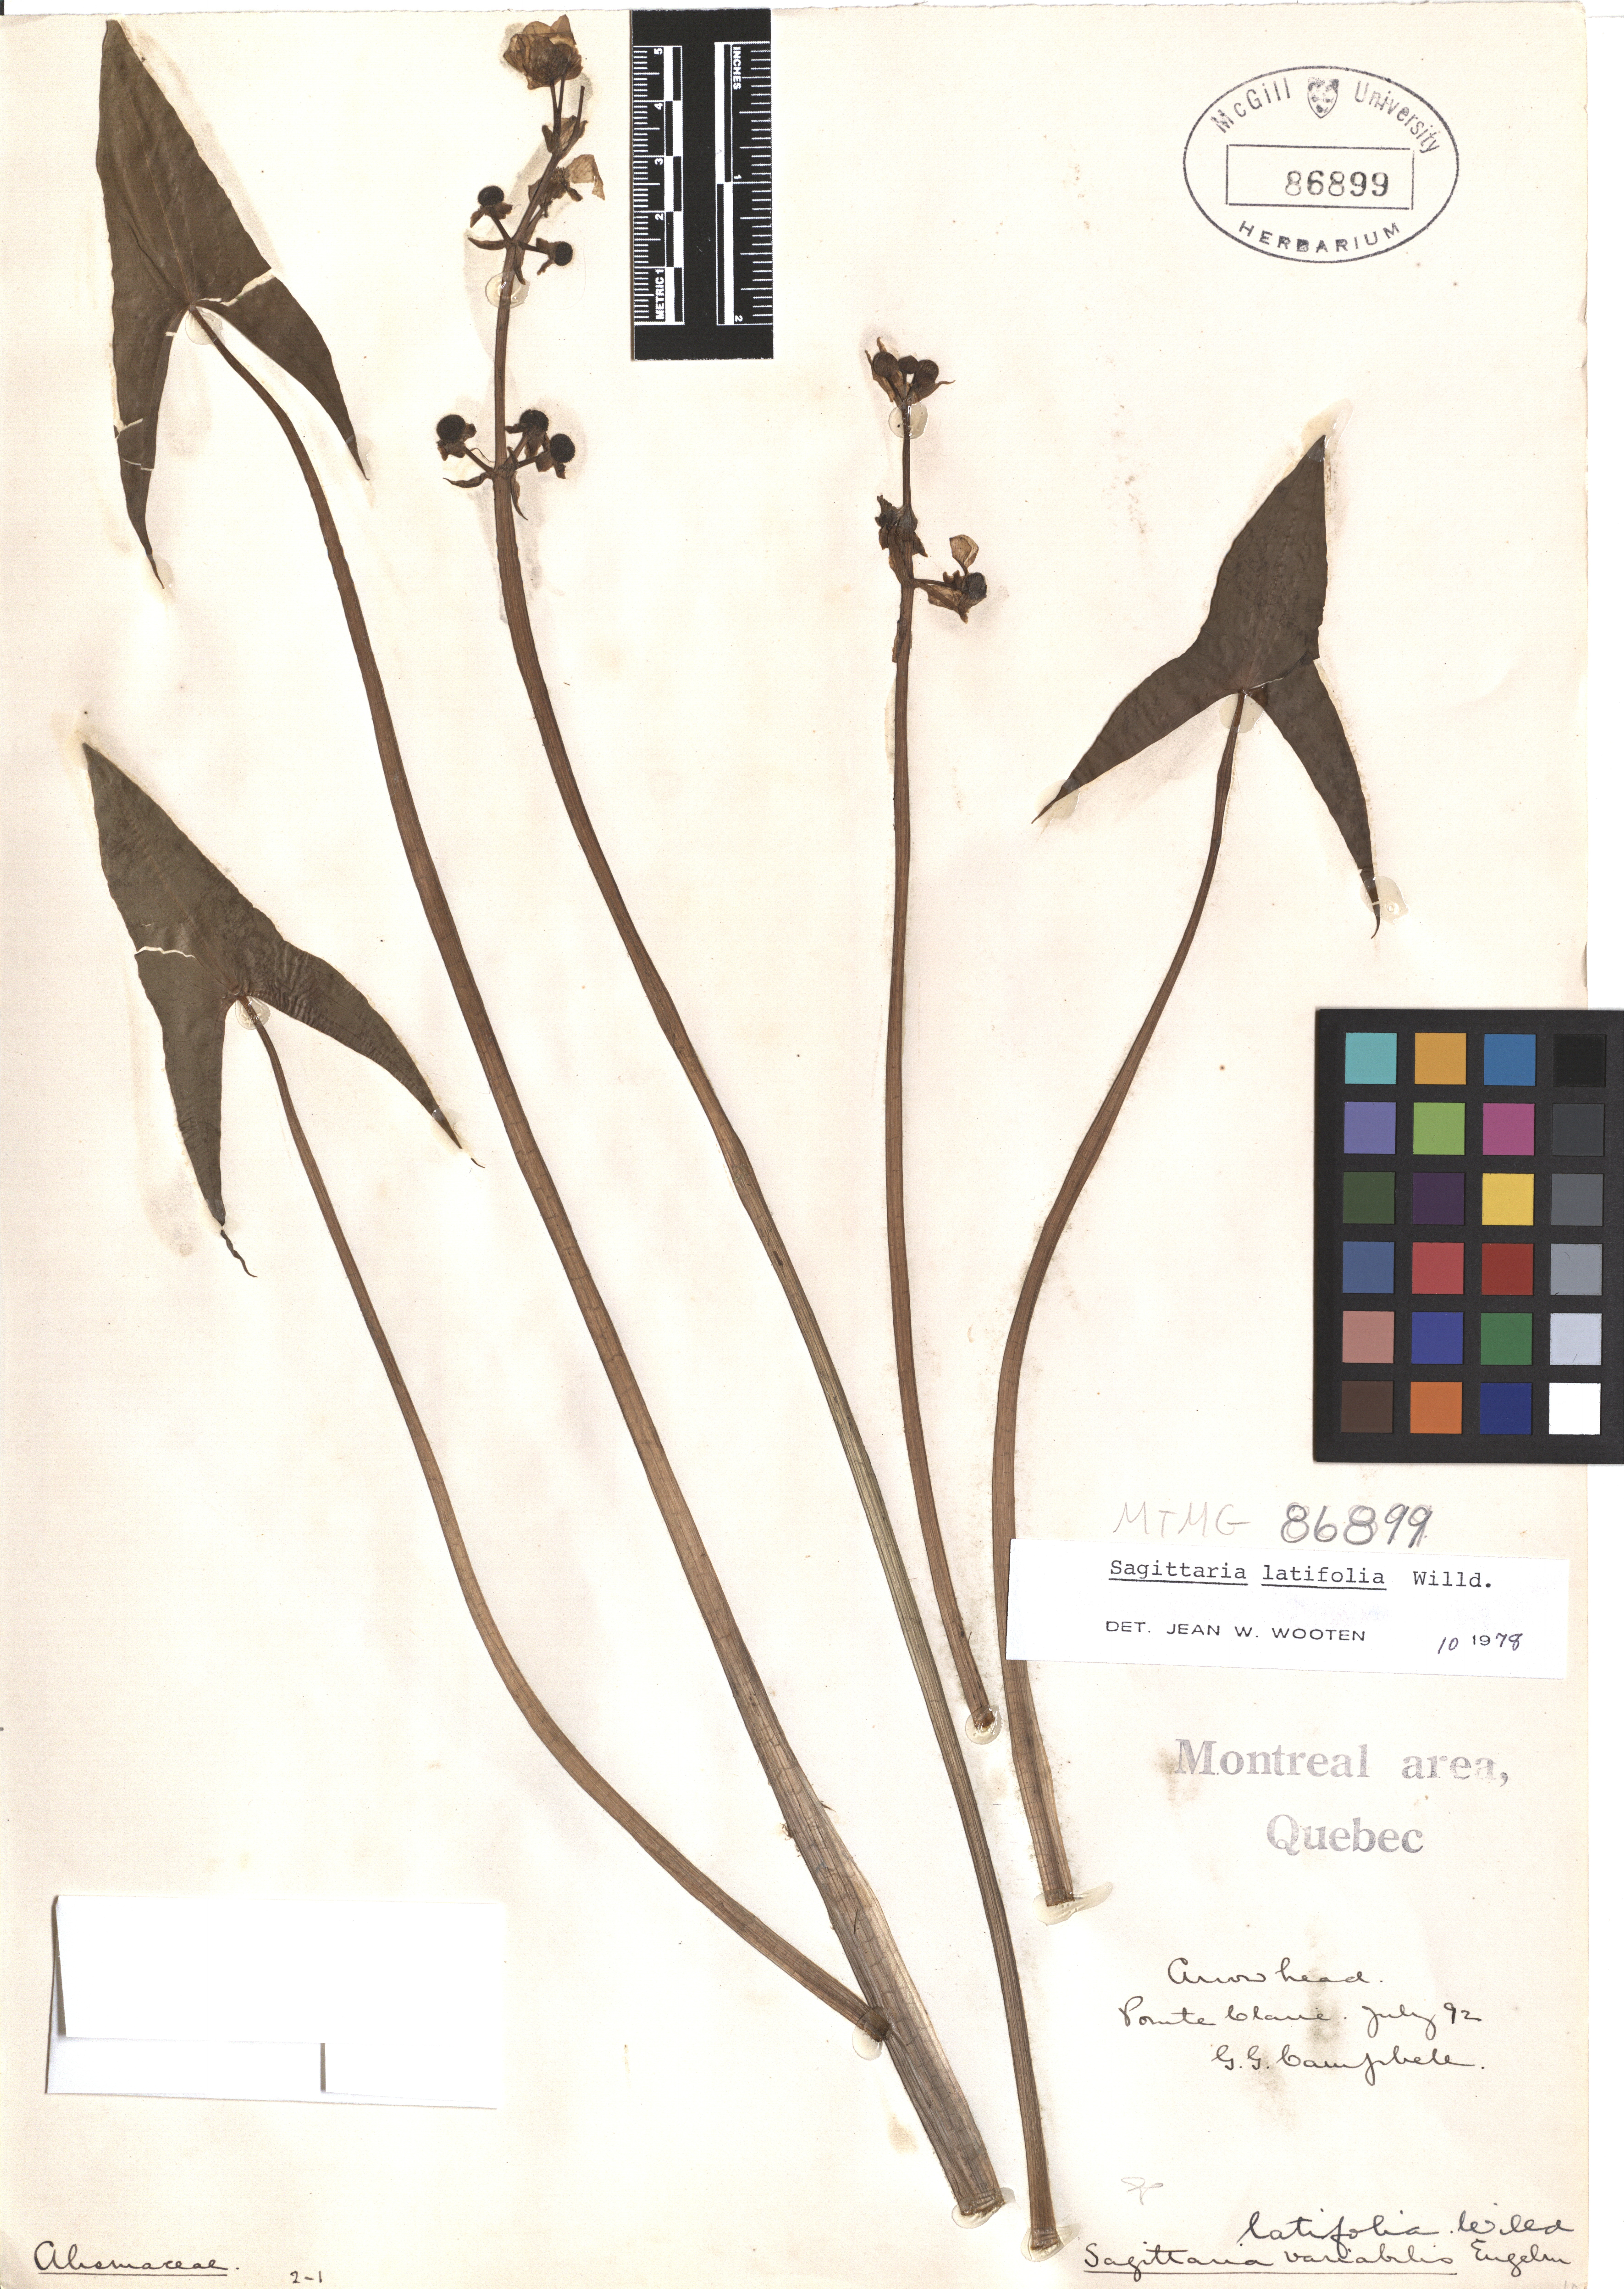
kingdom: Plantae
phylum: Tracheophyta
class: Liliopsida
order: Alismatales
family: Alismataceae
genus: Sagittaria
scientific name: Sagittaria latifolia
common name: Duck-potato
